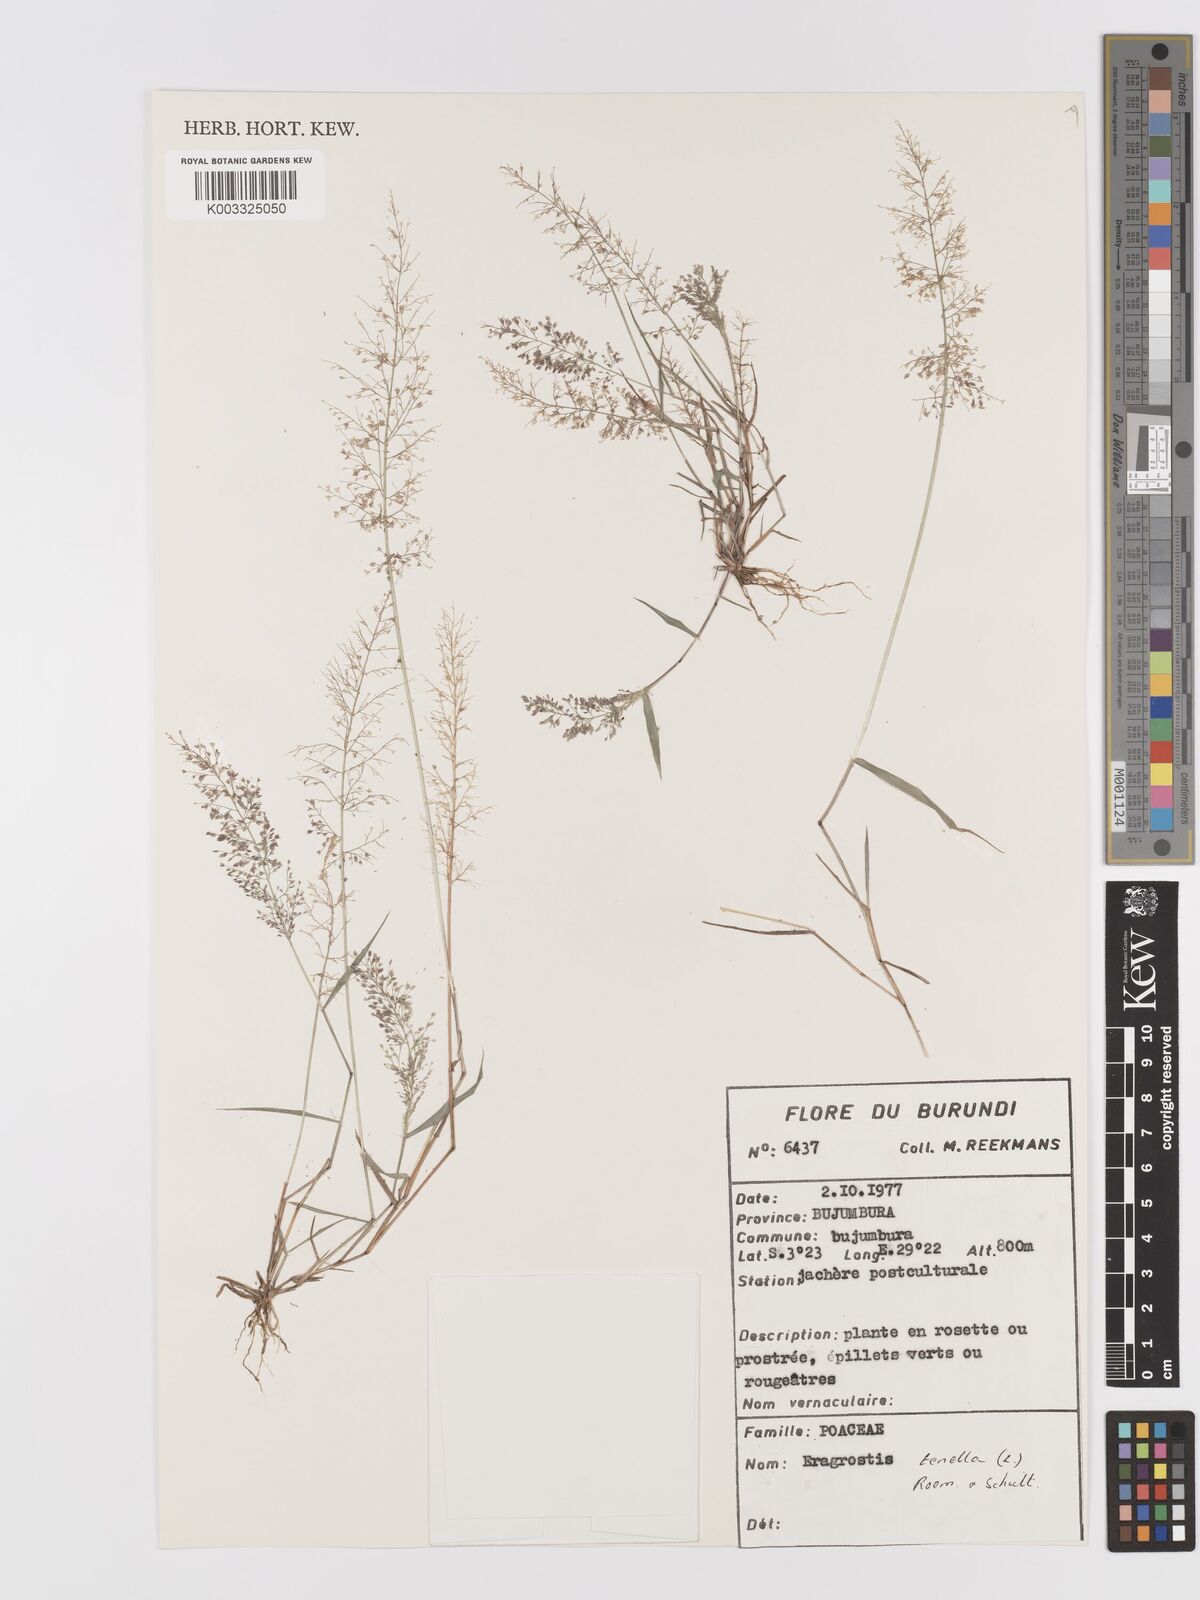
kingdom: Plantae
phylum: Tracheophyta
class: Liliopsida
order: Poales
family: Poaceae
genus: Eragrostis
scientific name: Eragrostis tenella
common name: Japanese lovegrass
